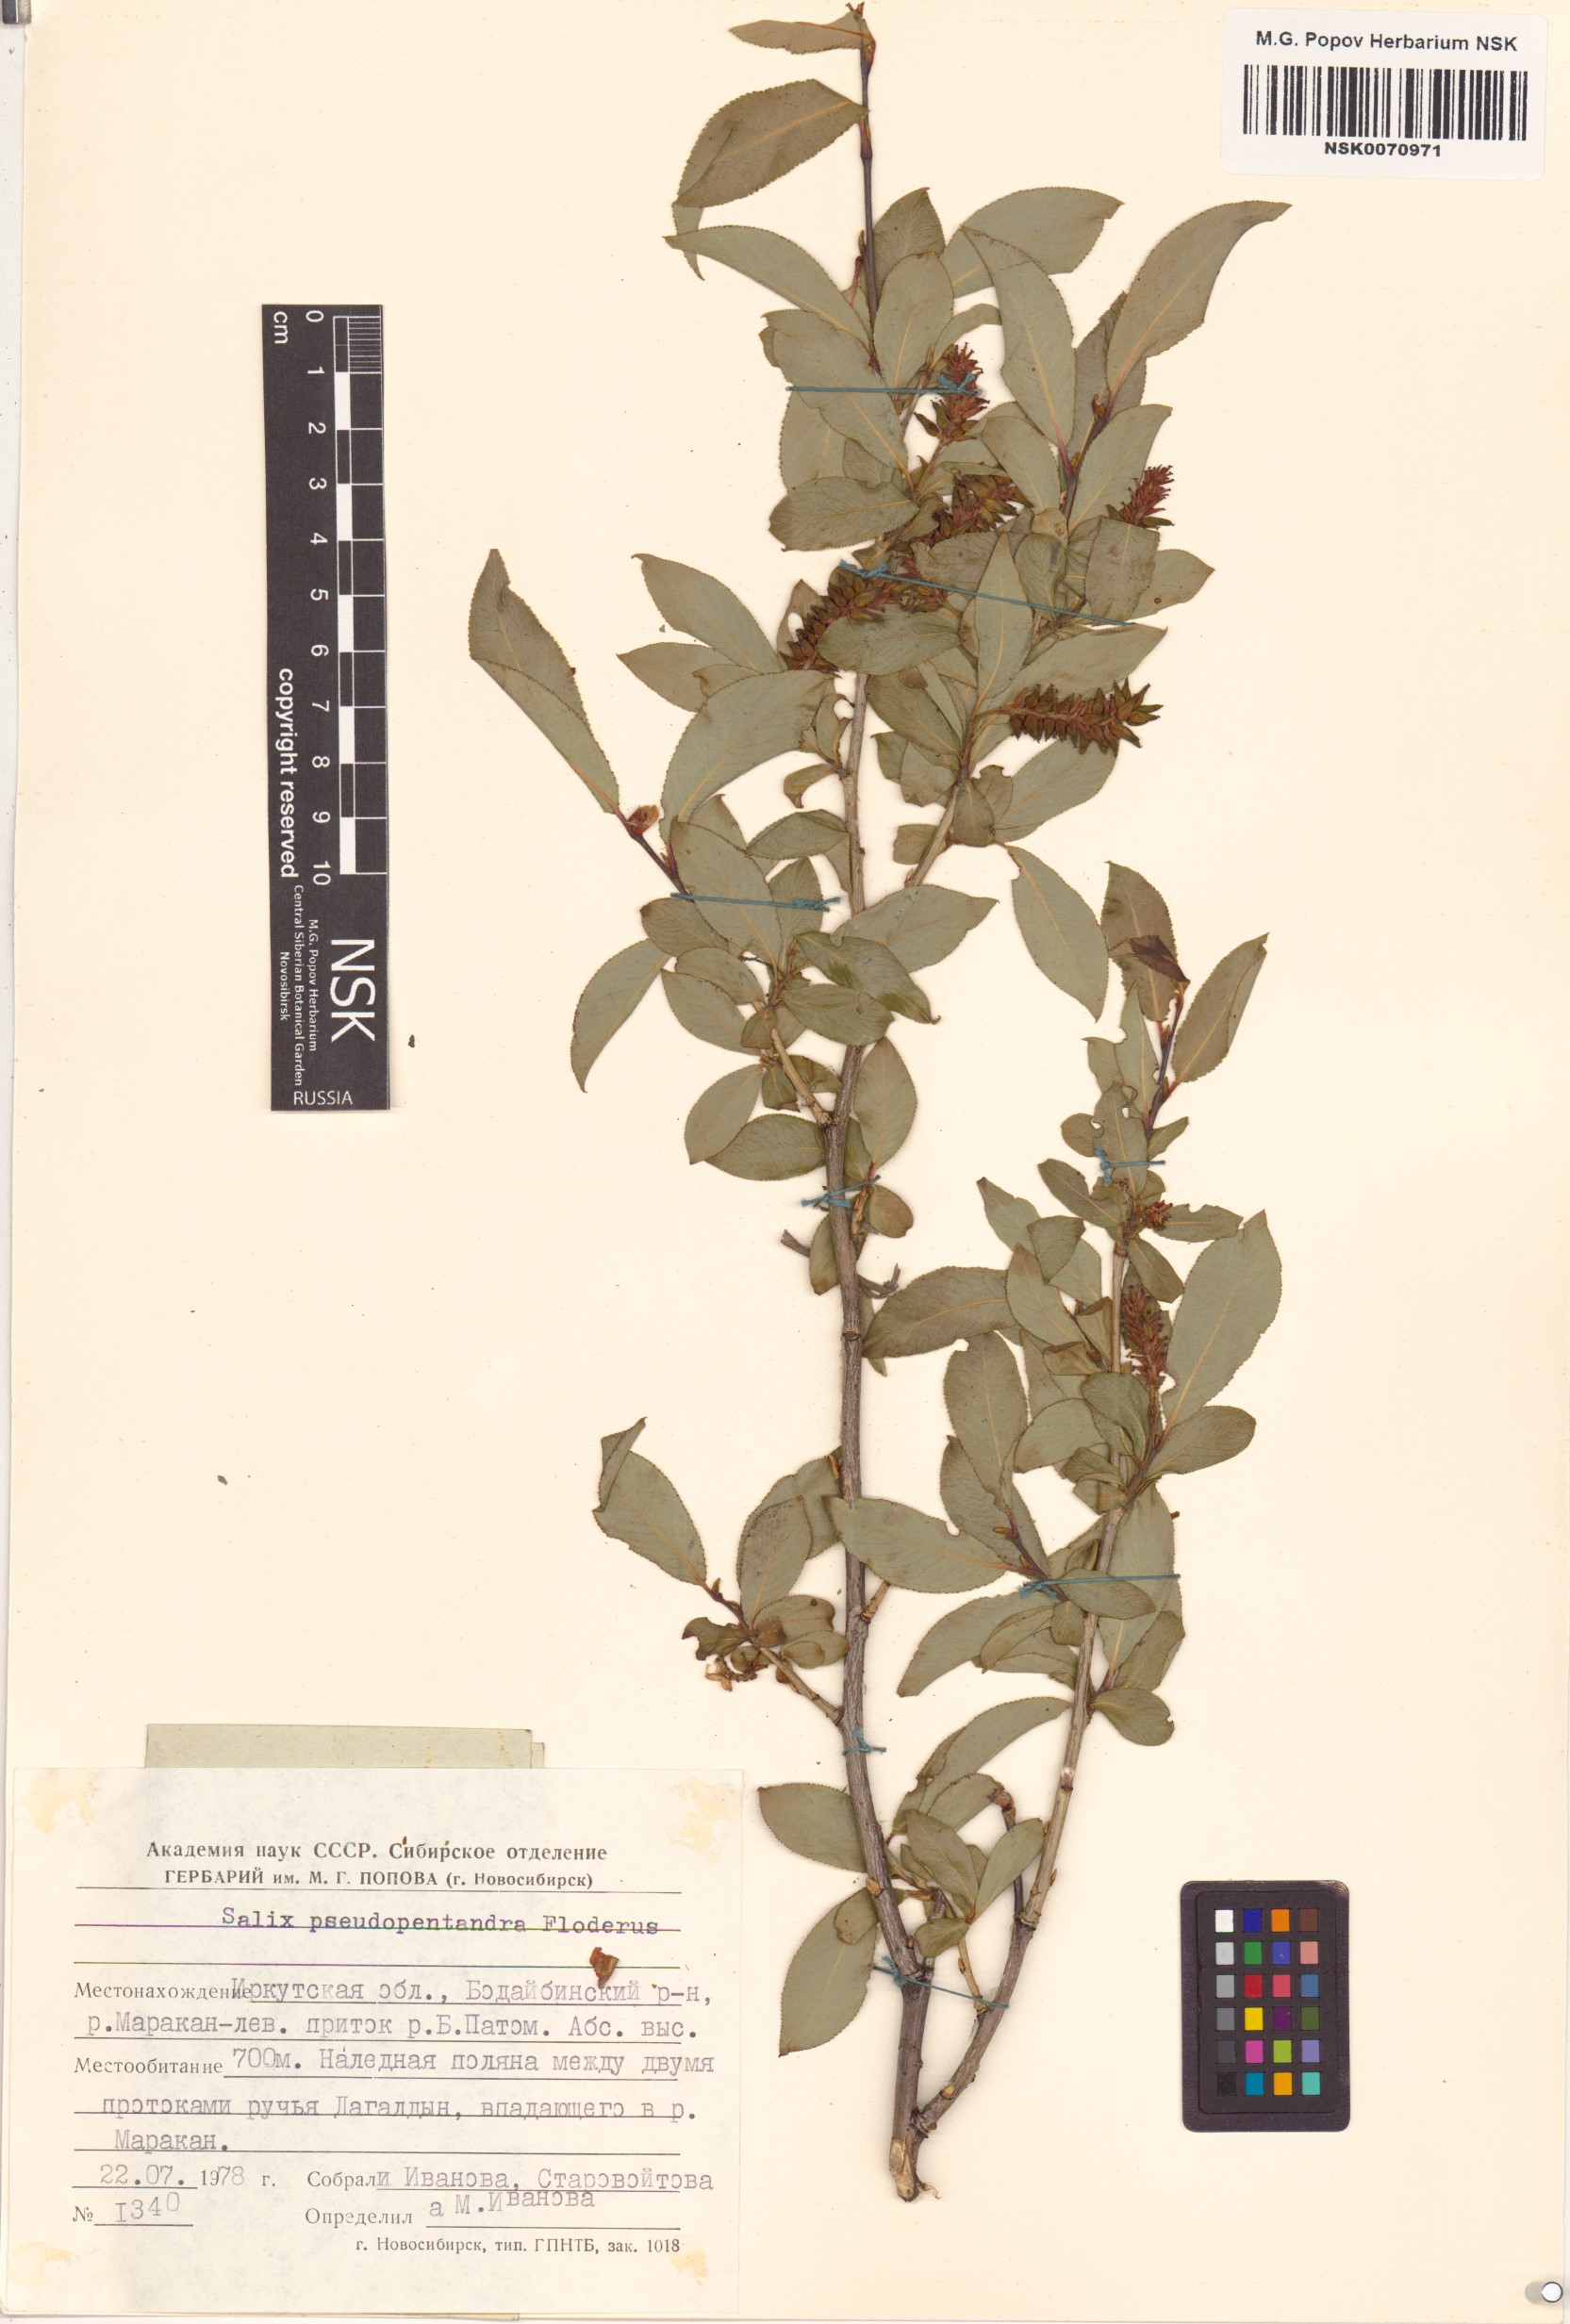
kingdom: Plantae
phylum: Tracheophyta
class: Magnoliopsida
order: Malpighiales
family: Salicaceae
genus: Salix
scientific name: Salix pseudopentandra
